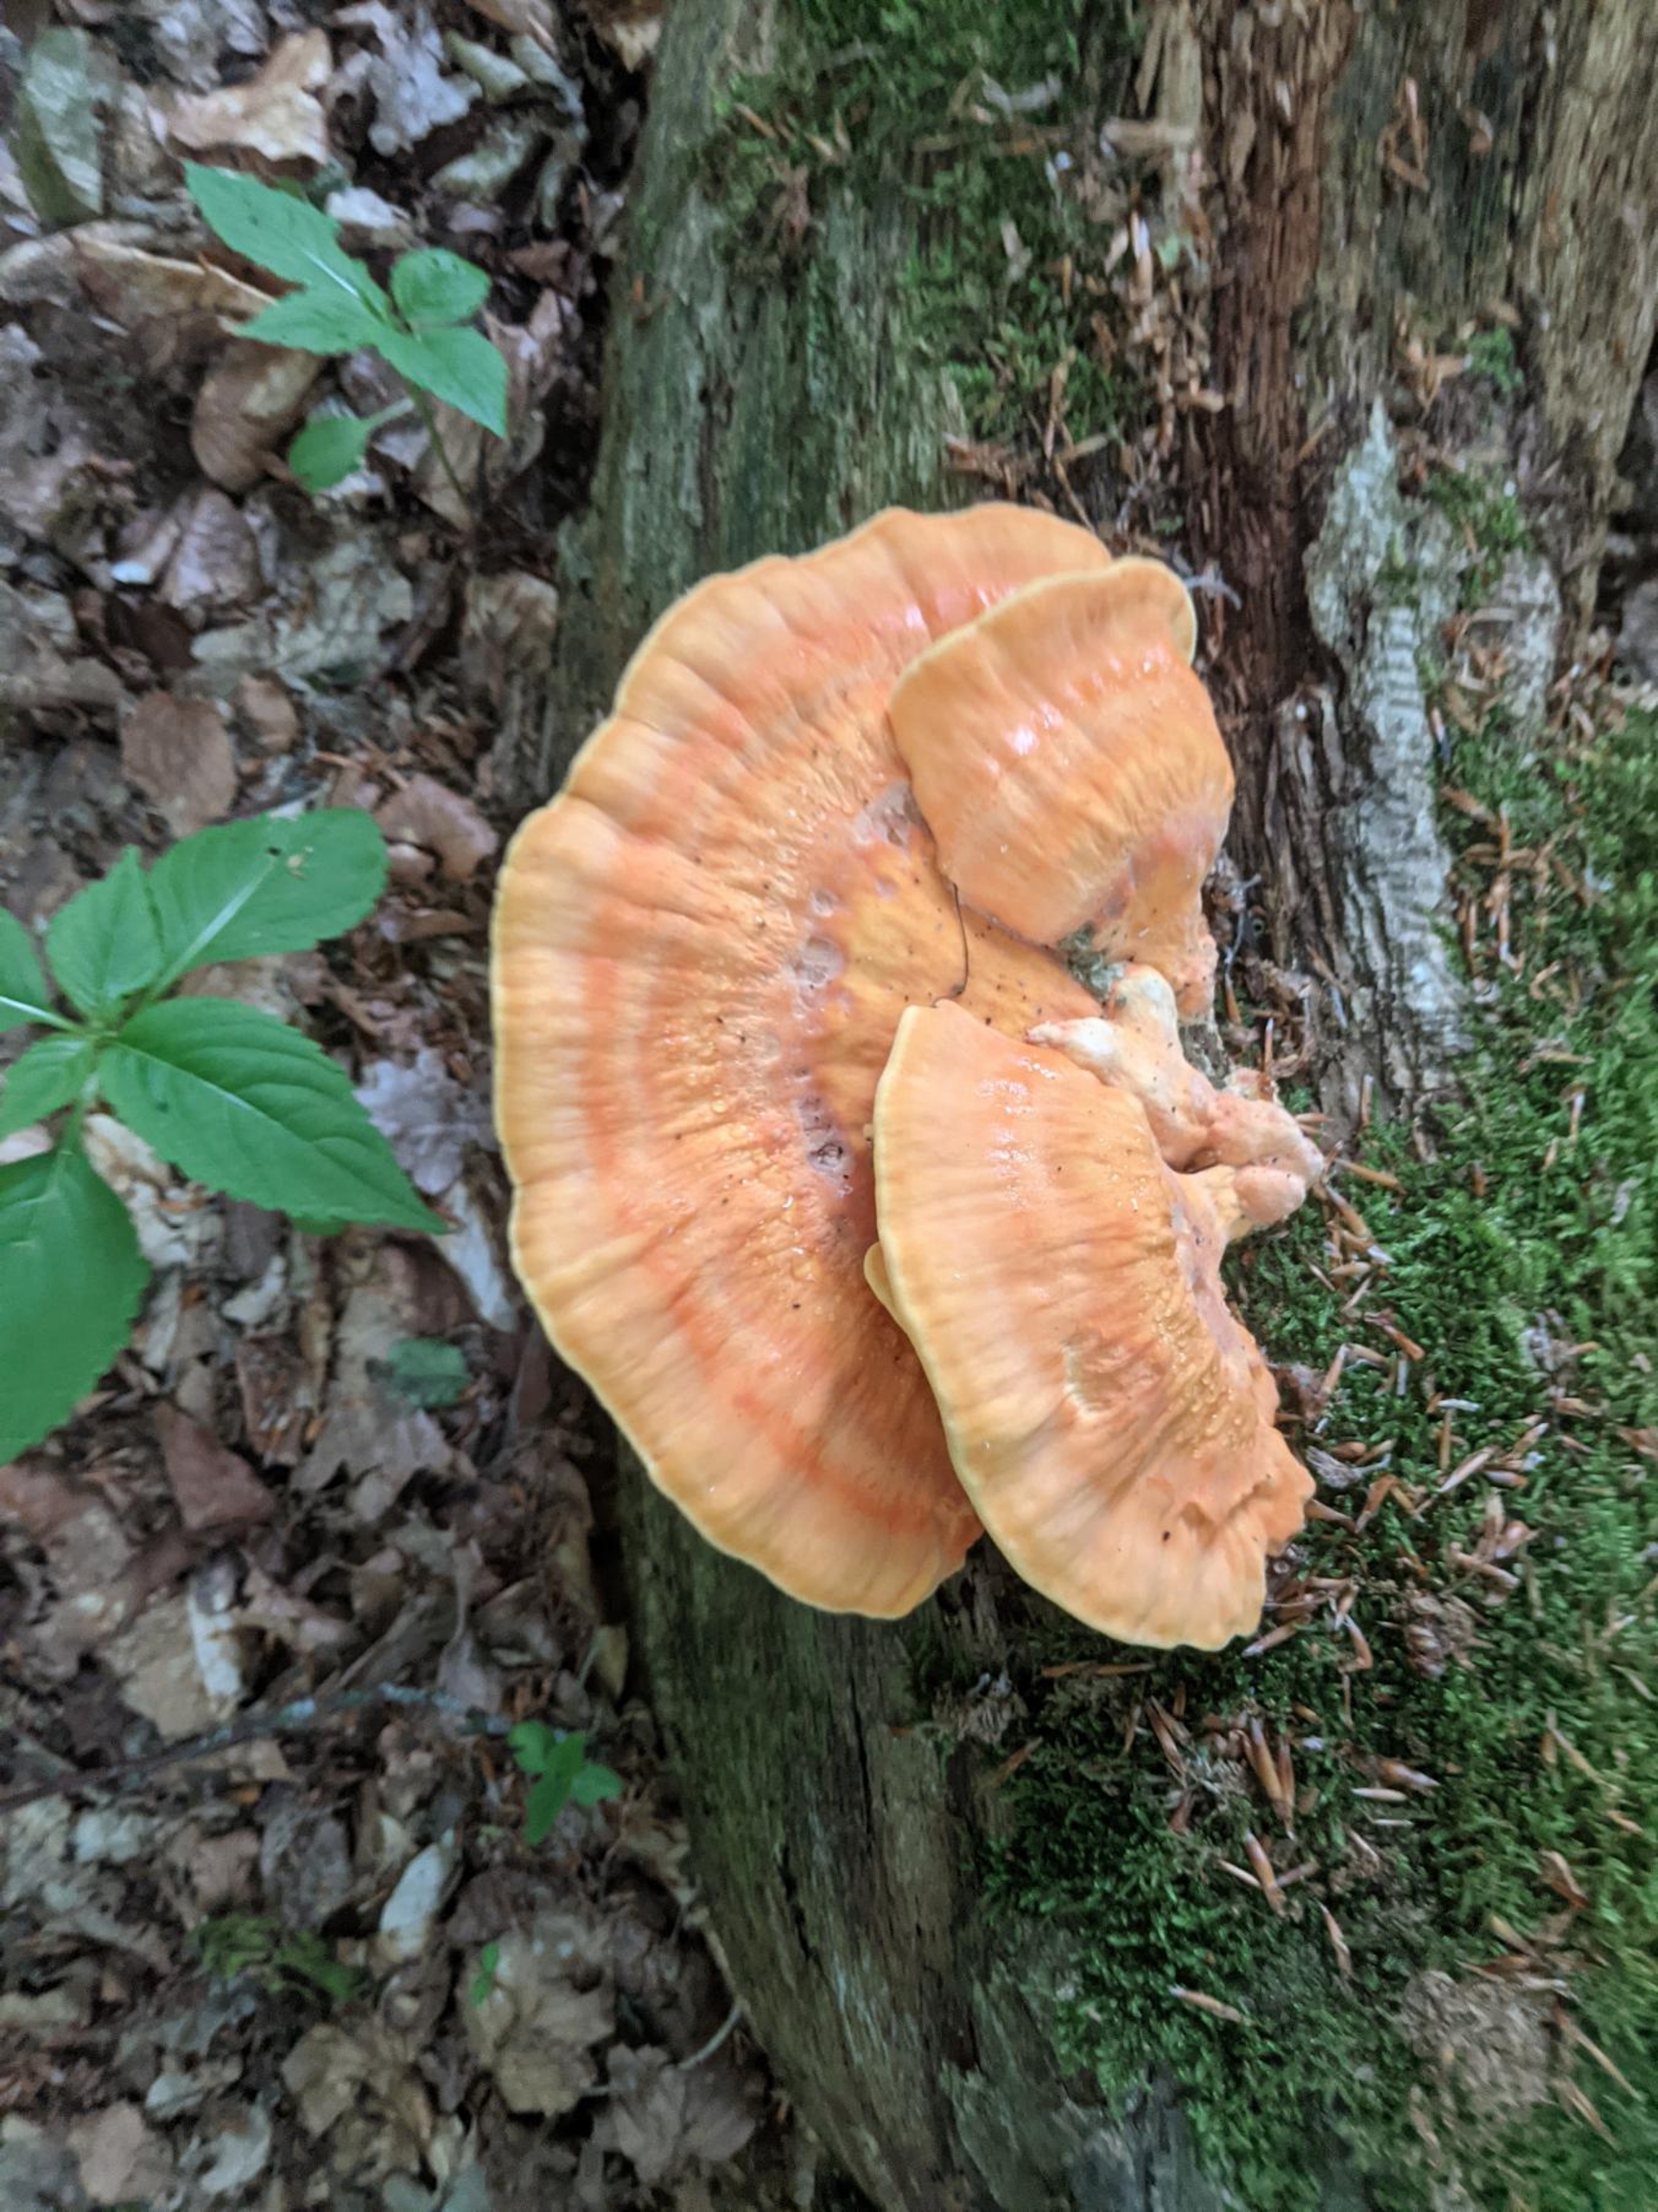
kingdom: Fungi
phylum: Basidiomycota
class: Agaricomycetes
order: Polyporales
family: Laetiporaceae
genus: Laetiporus
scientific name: Laetiporus sulphureus
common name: Svovlporesvamp
